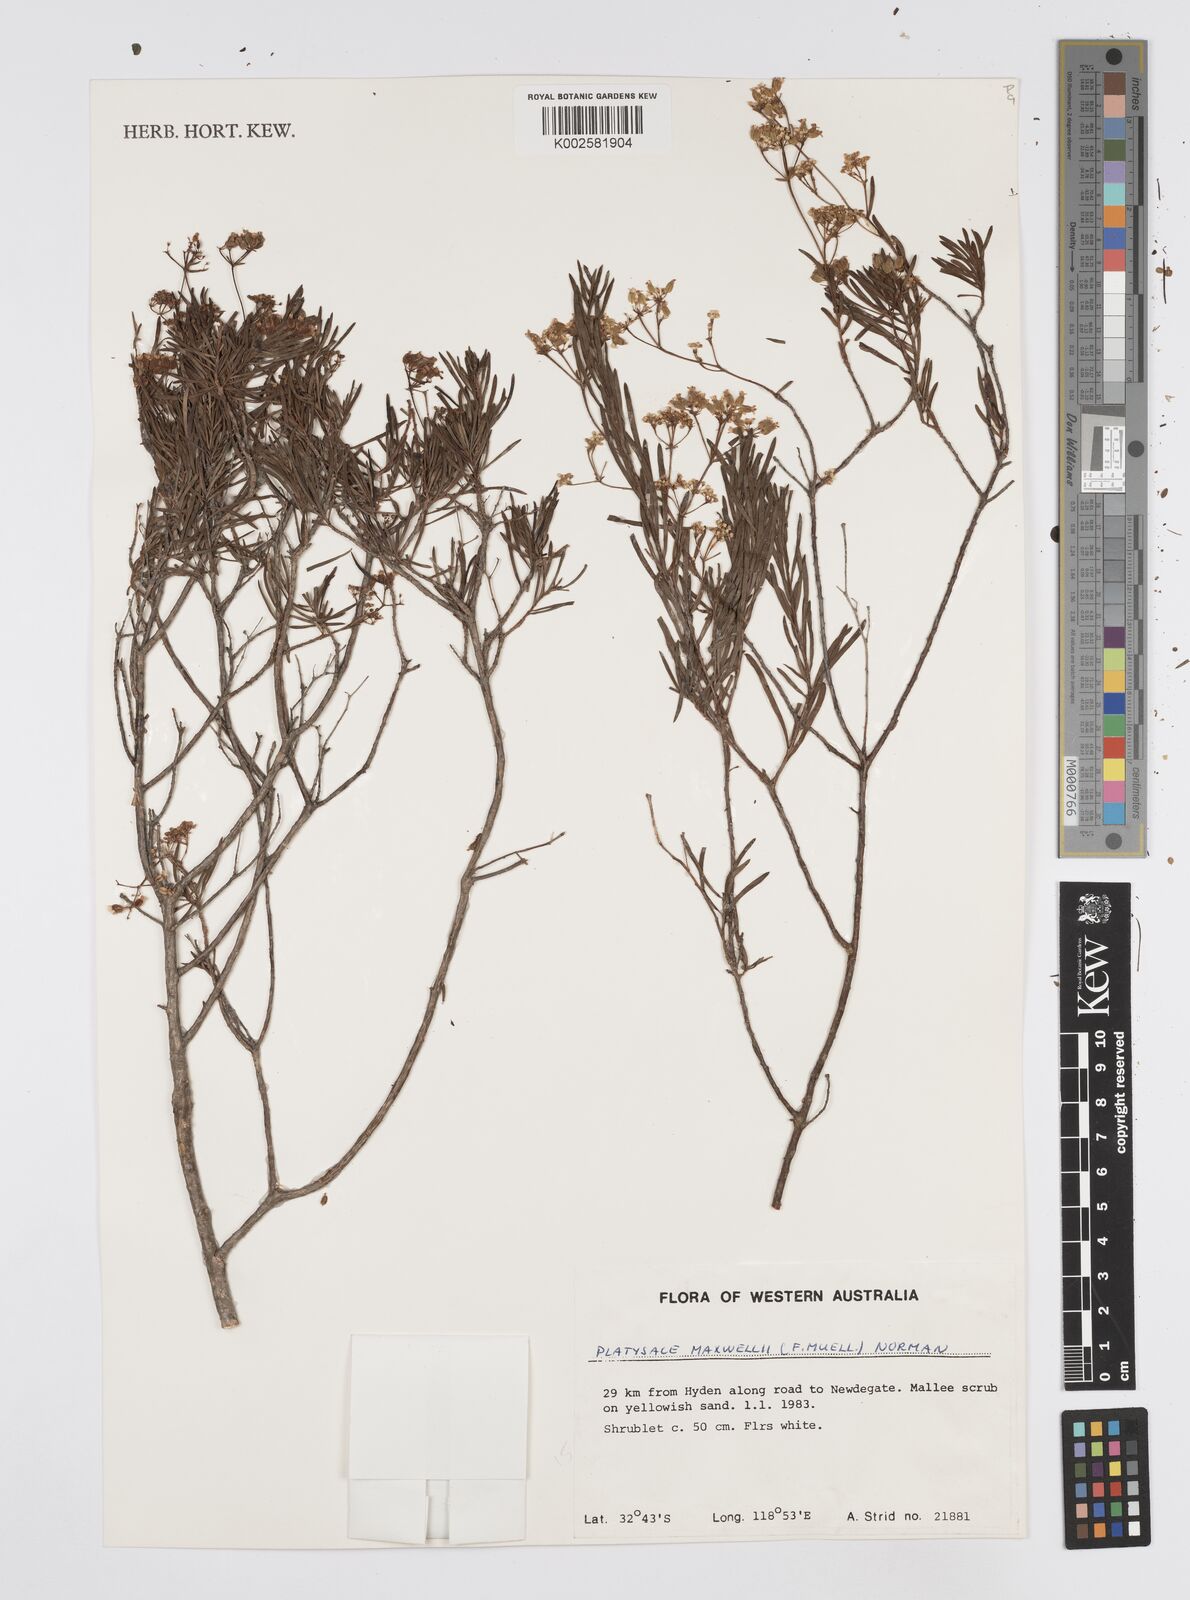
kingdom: Plantae
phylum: Tracheophyta
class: Magnoliopsida
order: Apiales
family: Apiaceae
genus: Platysace
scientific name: Platysace maxwellii
